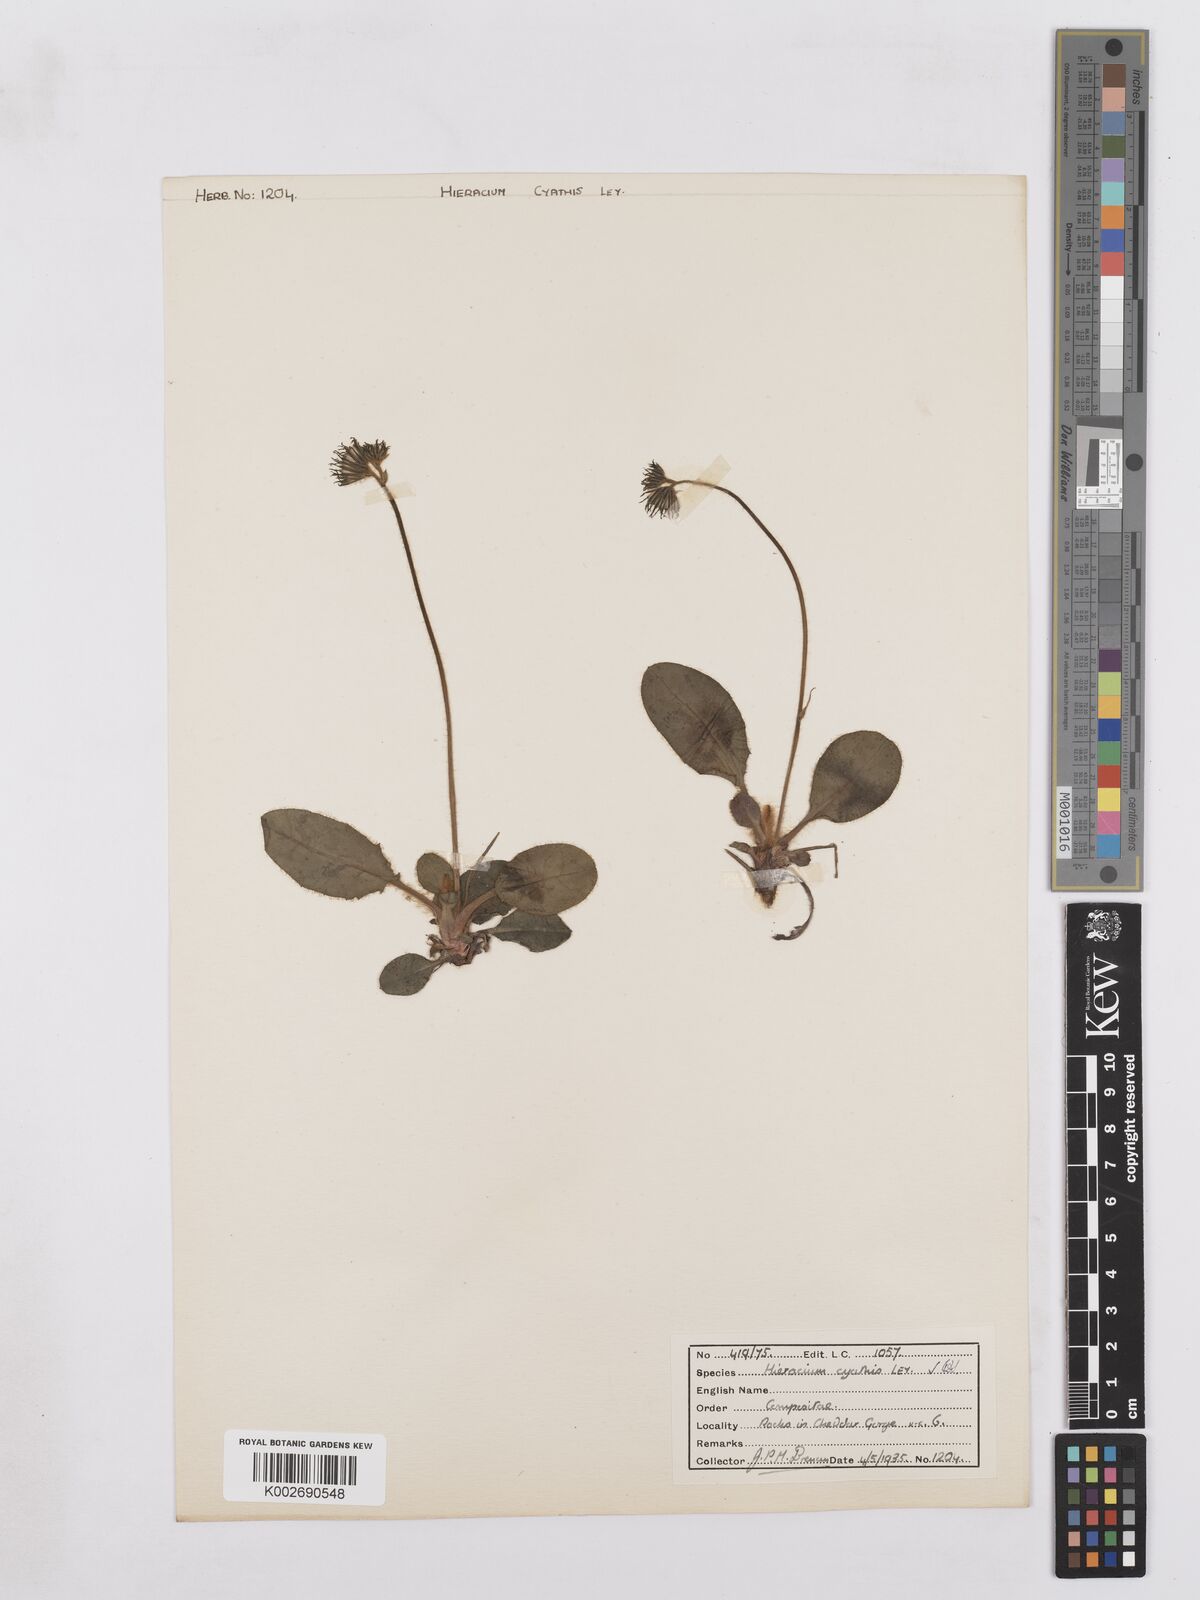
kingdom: Plantae
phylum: Tracheophyta
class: Magnoliopsida
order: Asterales
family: Asteraceae
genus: Hieracium
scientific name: Hieracium hypochoeroides
